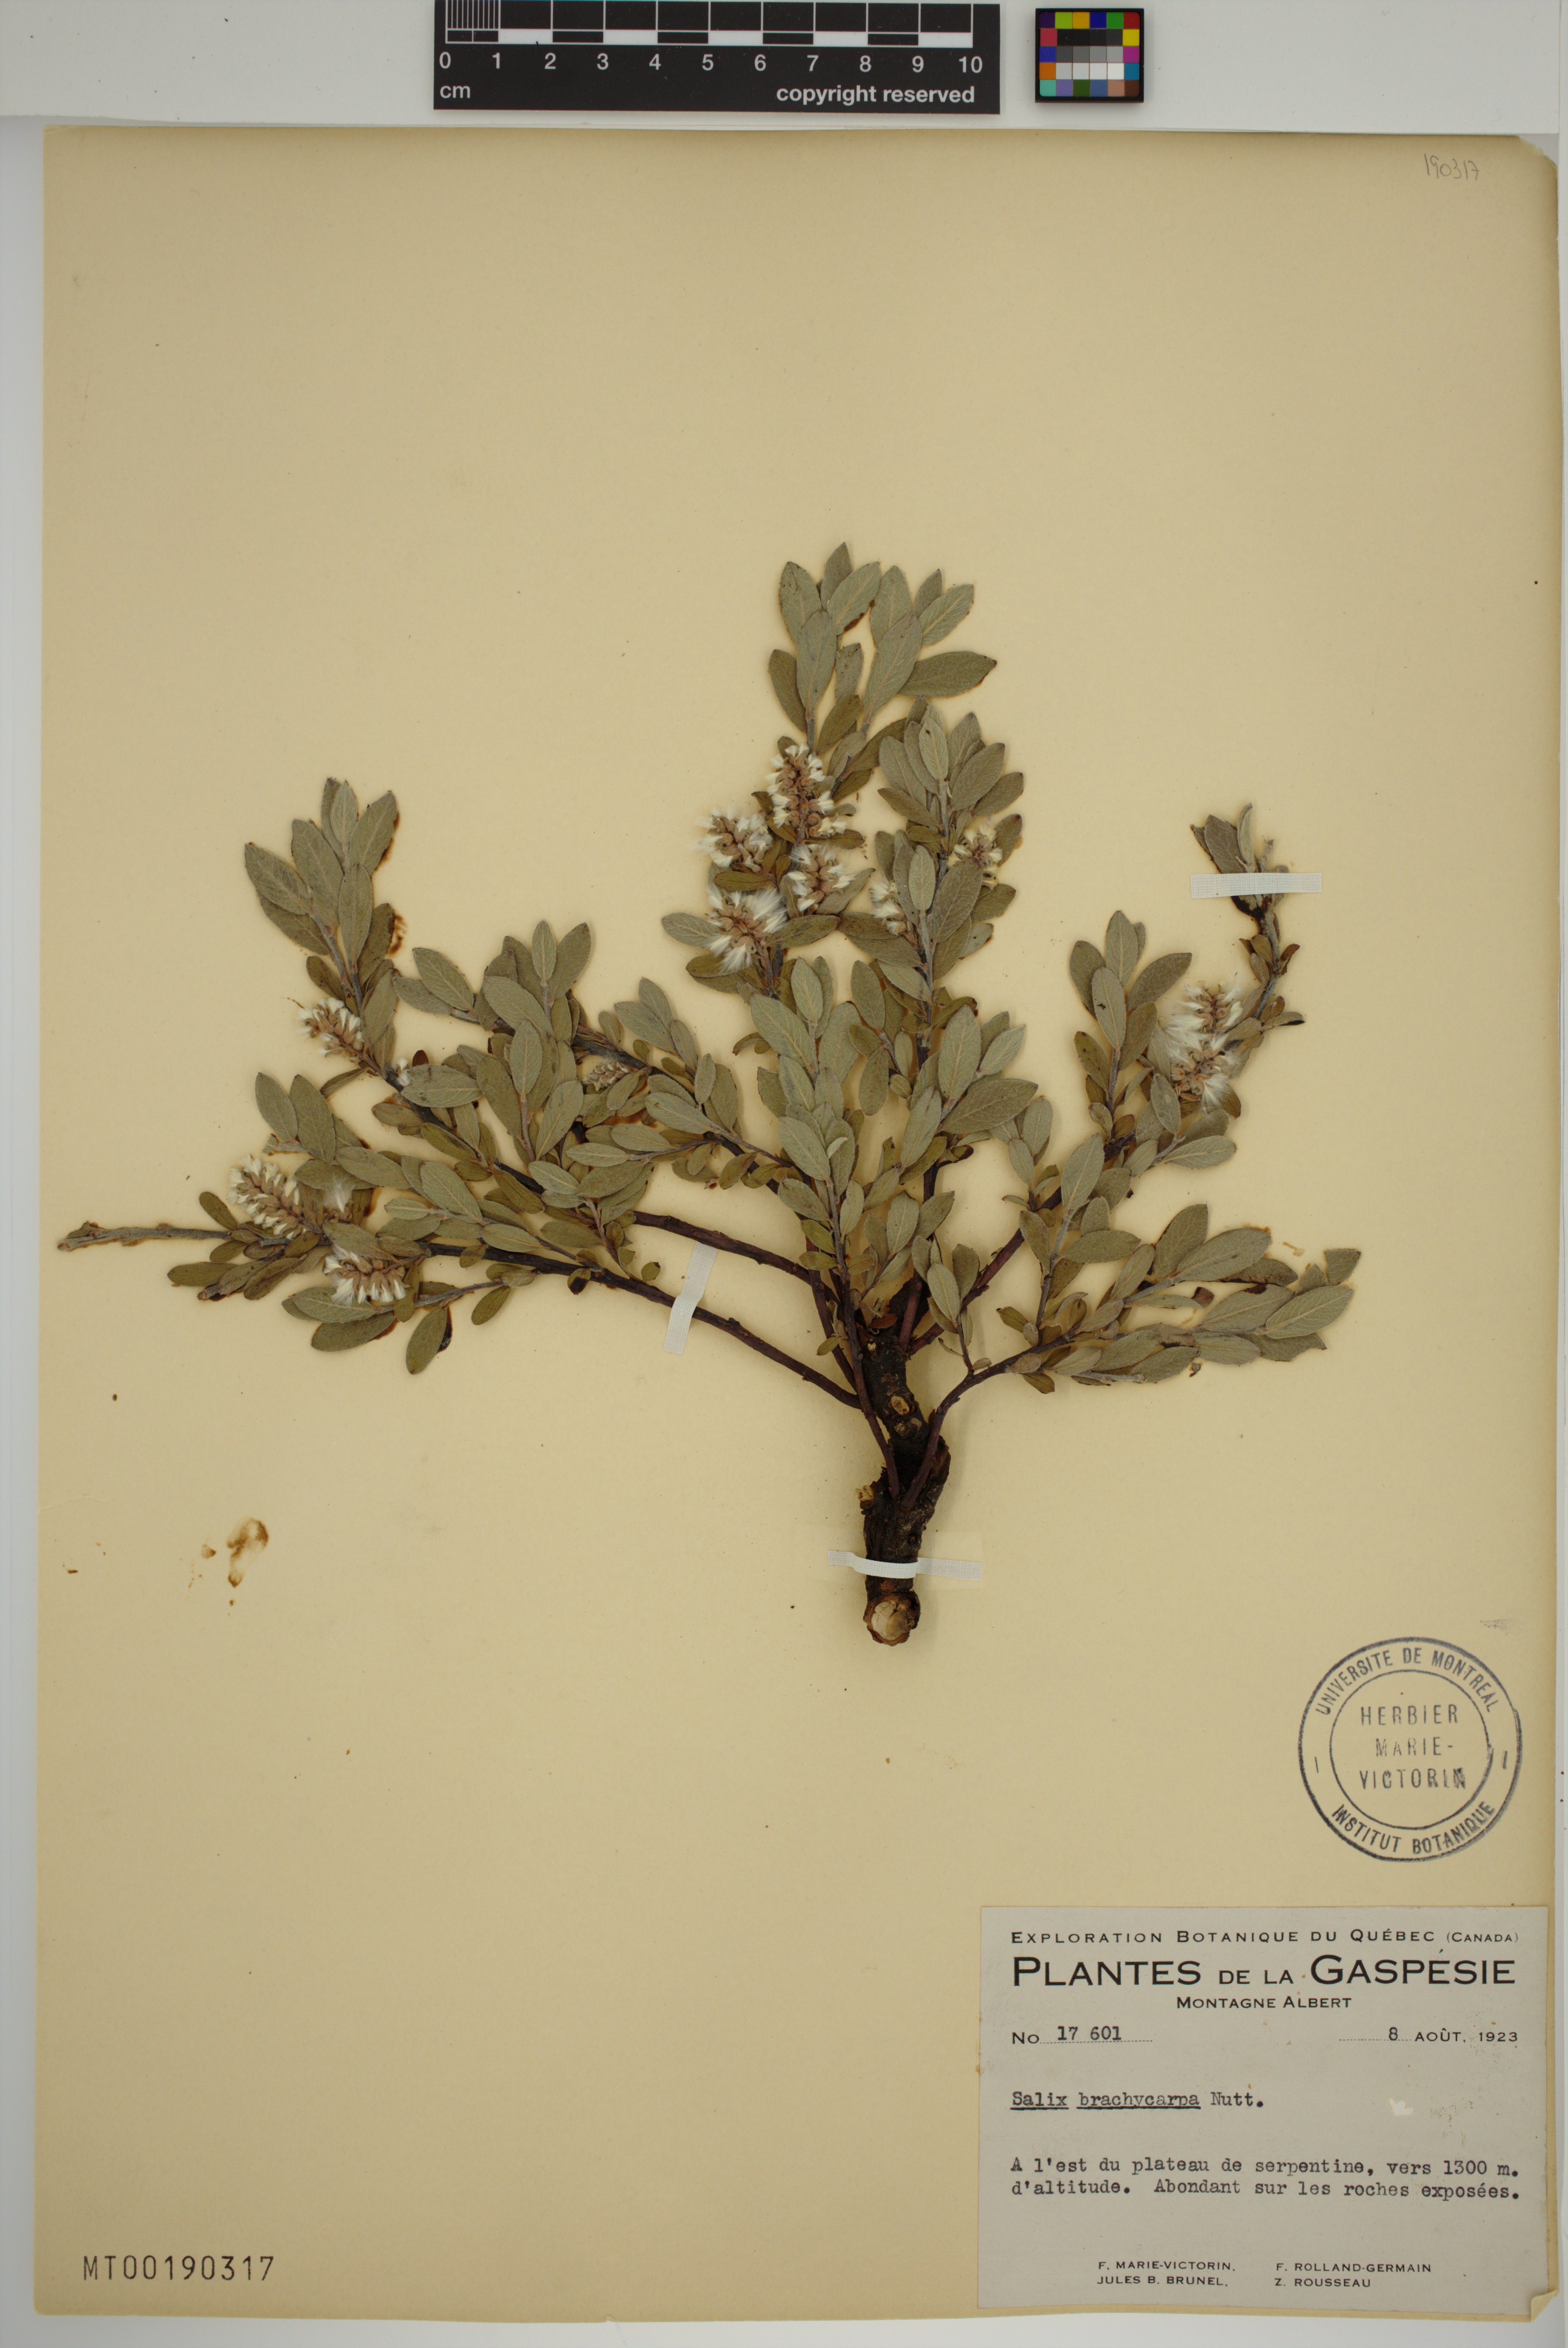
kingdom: Plantae
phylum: Tracheophyta
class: Magnoliopsida
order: Malpighiales
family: Salicaceae
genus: Salix
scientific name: Salix brachycarpa
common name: Barren-ground willow
